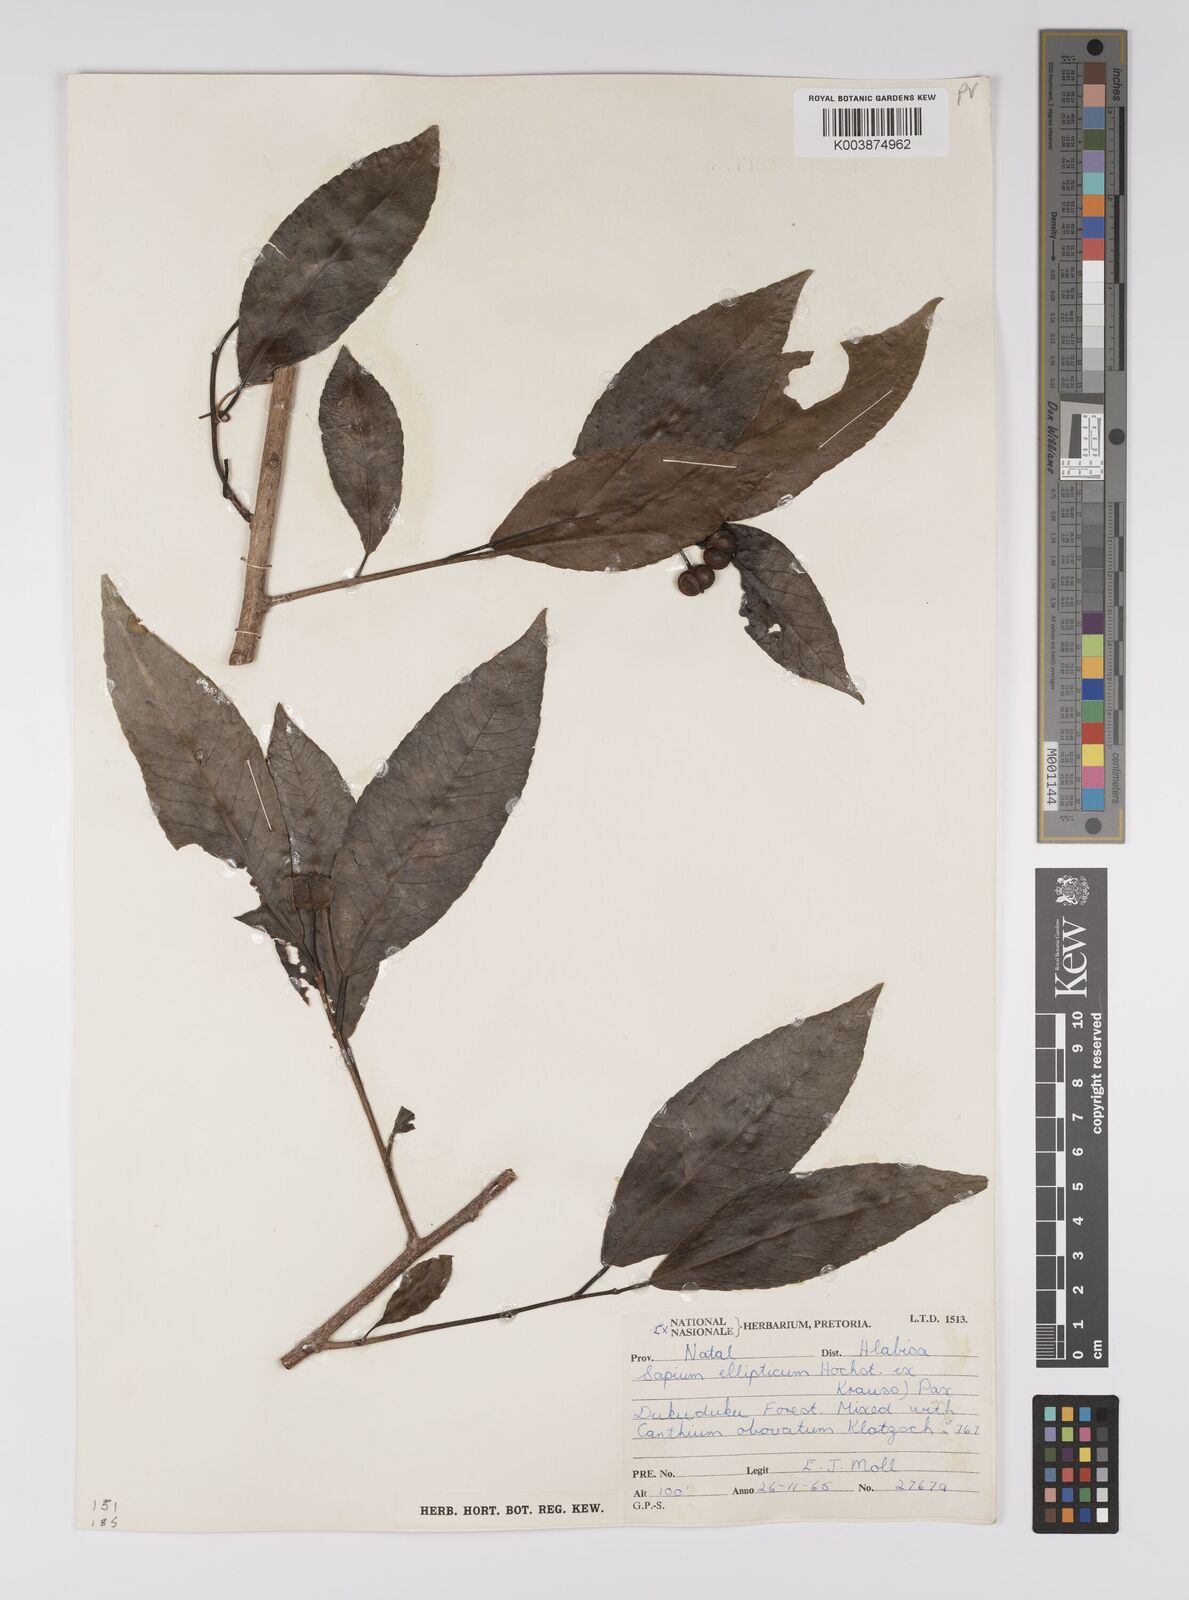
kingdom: Plantae
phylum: Tracheophyta
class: Magnoliopsida
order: Malpighiales
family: Euphorbiaceae
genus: Shirakiopsis
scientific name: Shirakiopsis elliptica
